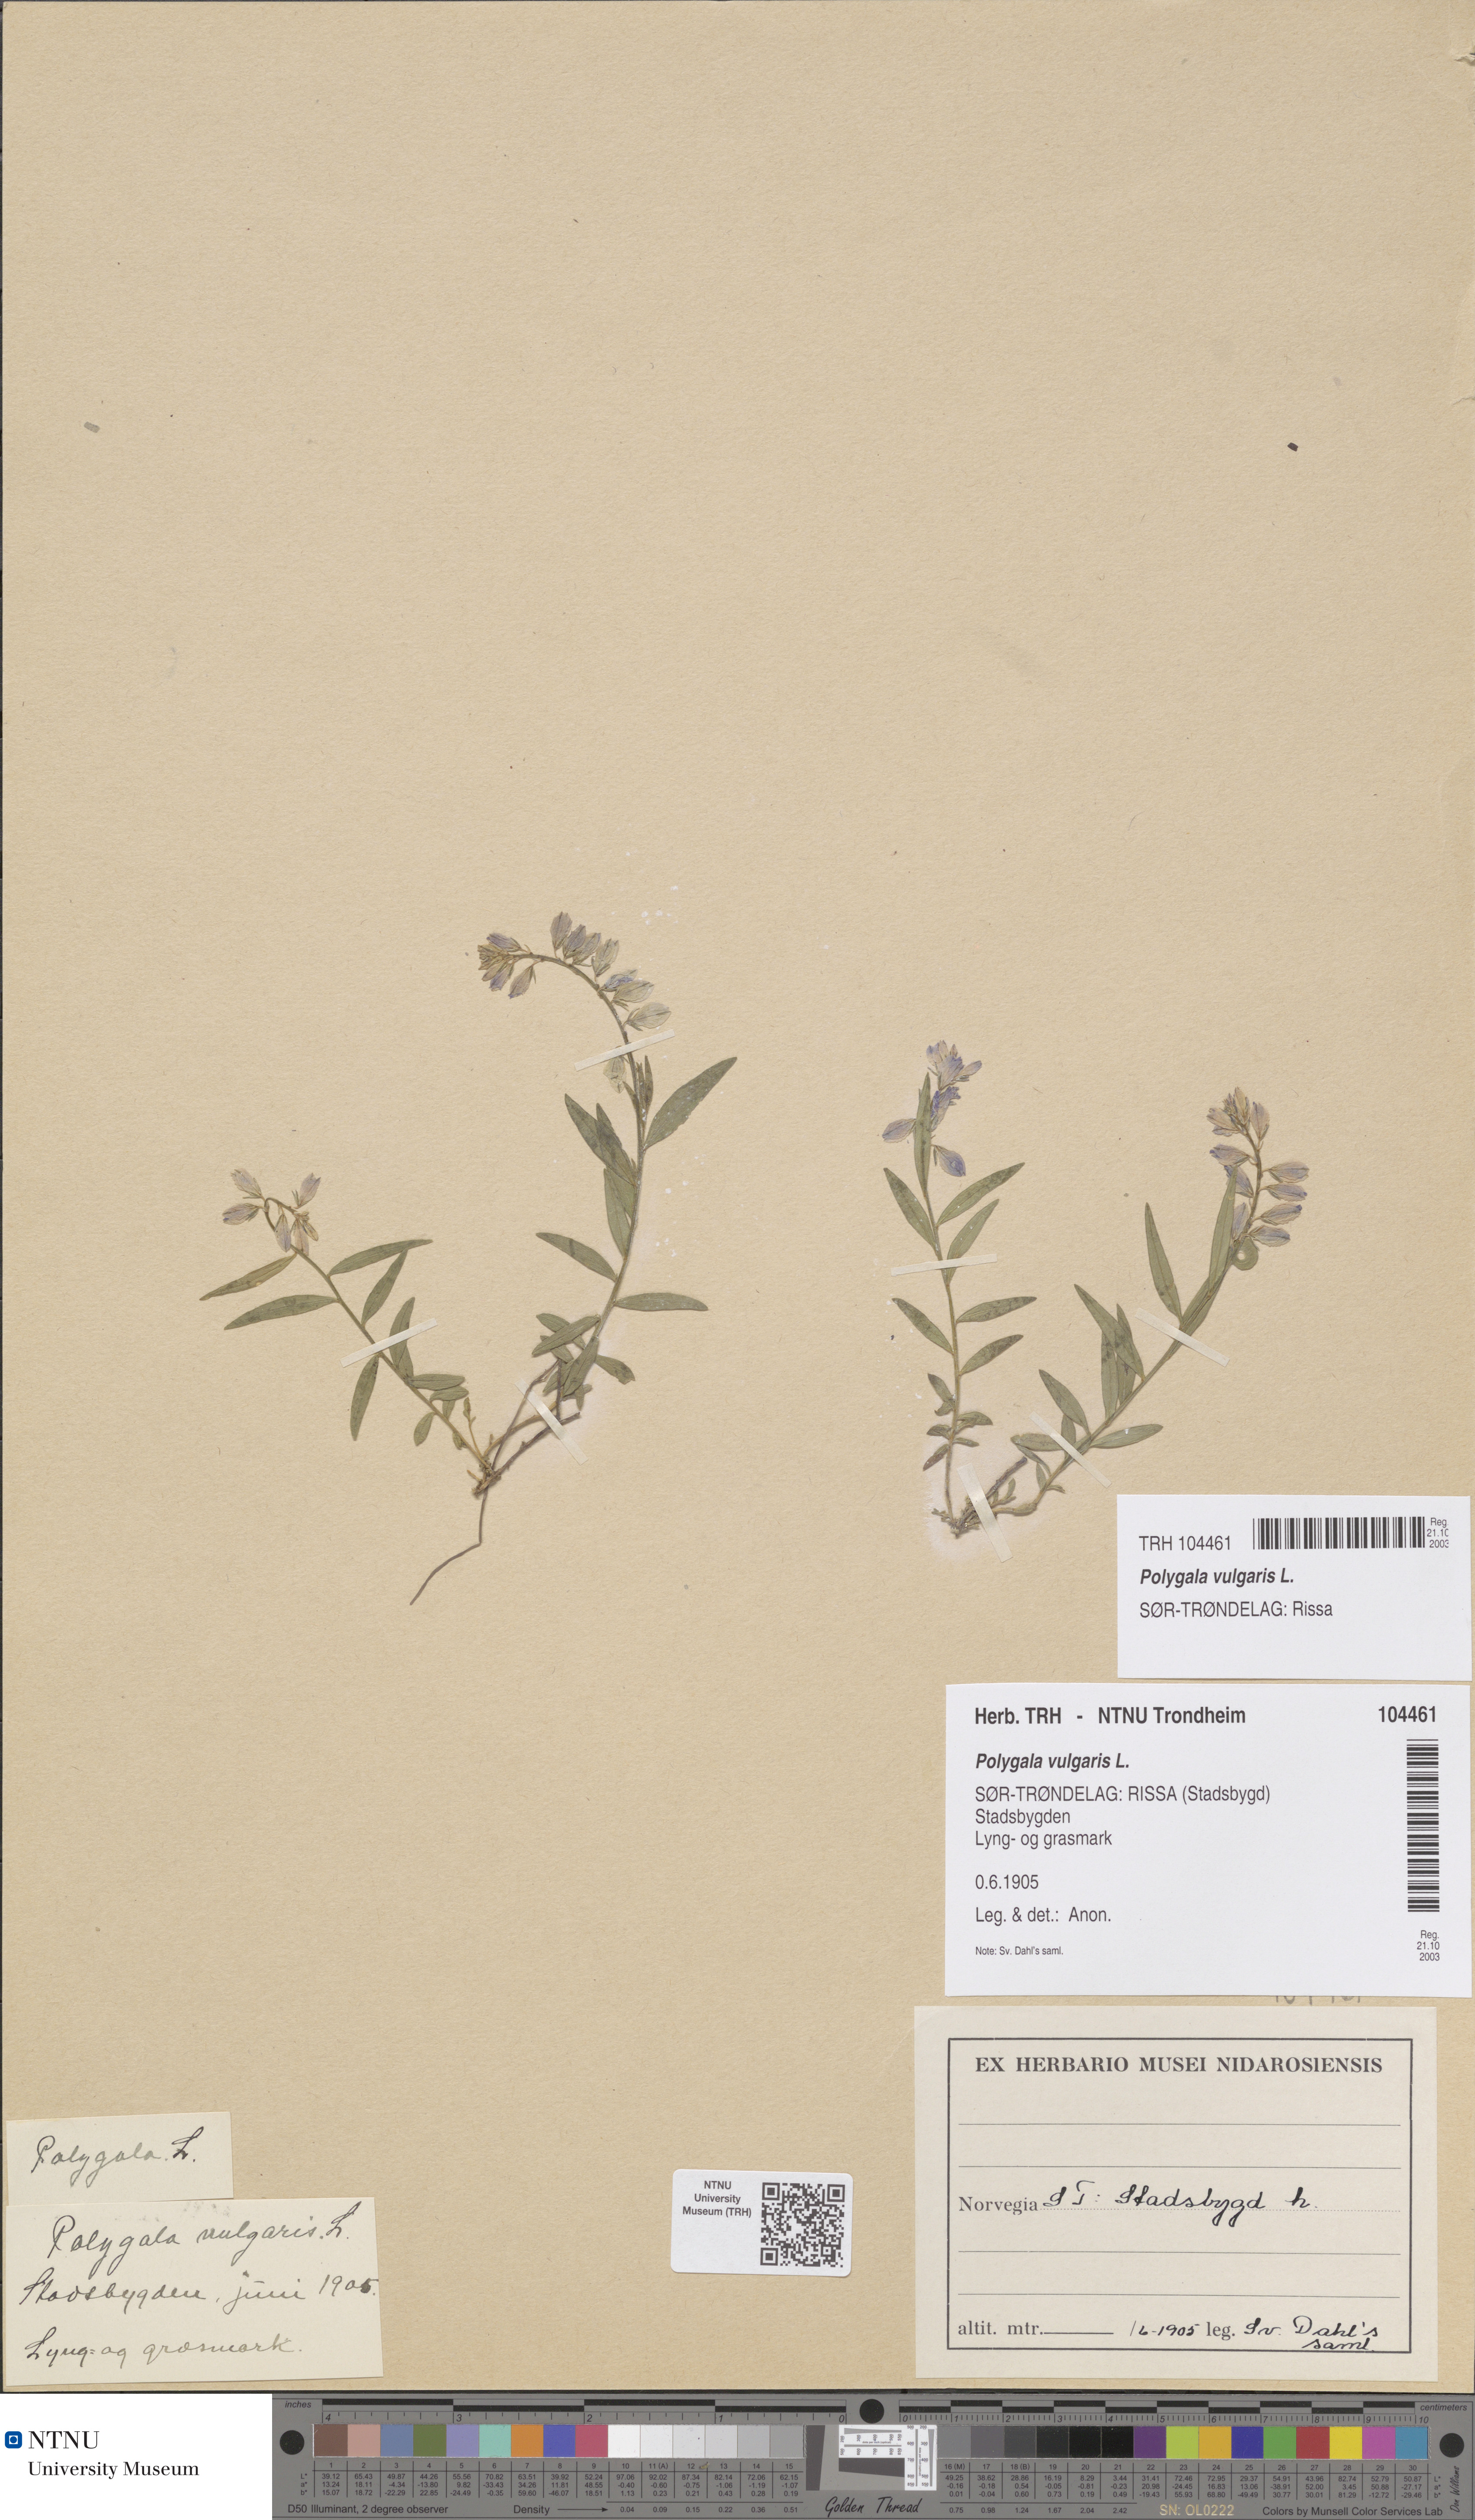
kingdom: Plantae
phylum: Tracheophyta
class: Magnoliopsida
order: Fabales
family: Polygalaceae
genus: Polygala
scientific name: Polygala vulgaris
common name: Common milkwort
